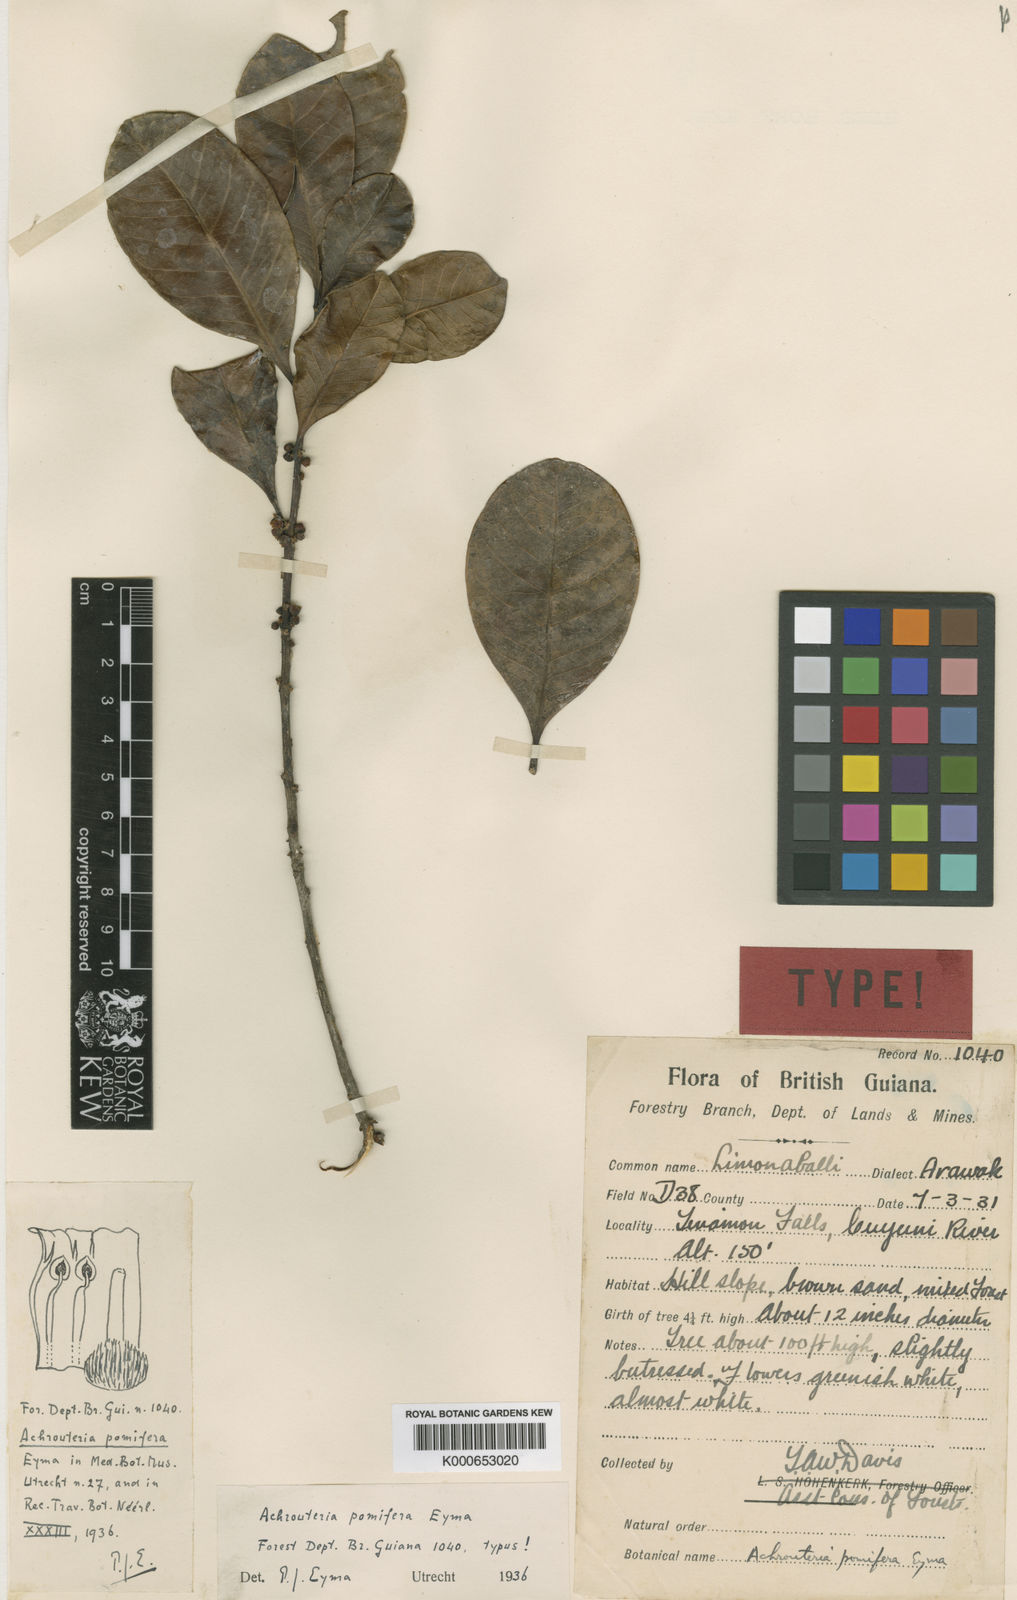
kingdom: Plantae
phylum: Tracheophyta
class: Magnoliopsida
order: Ericales
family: Sapotaceae
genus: Chrysophyllum
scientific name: Chrysophyllum gonocarpum
